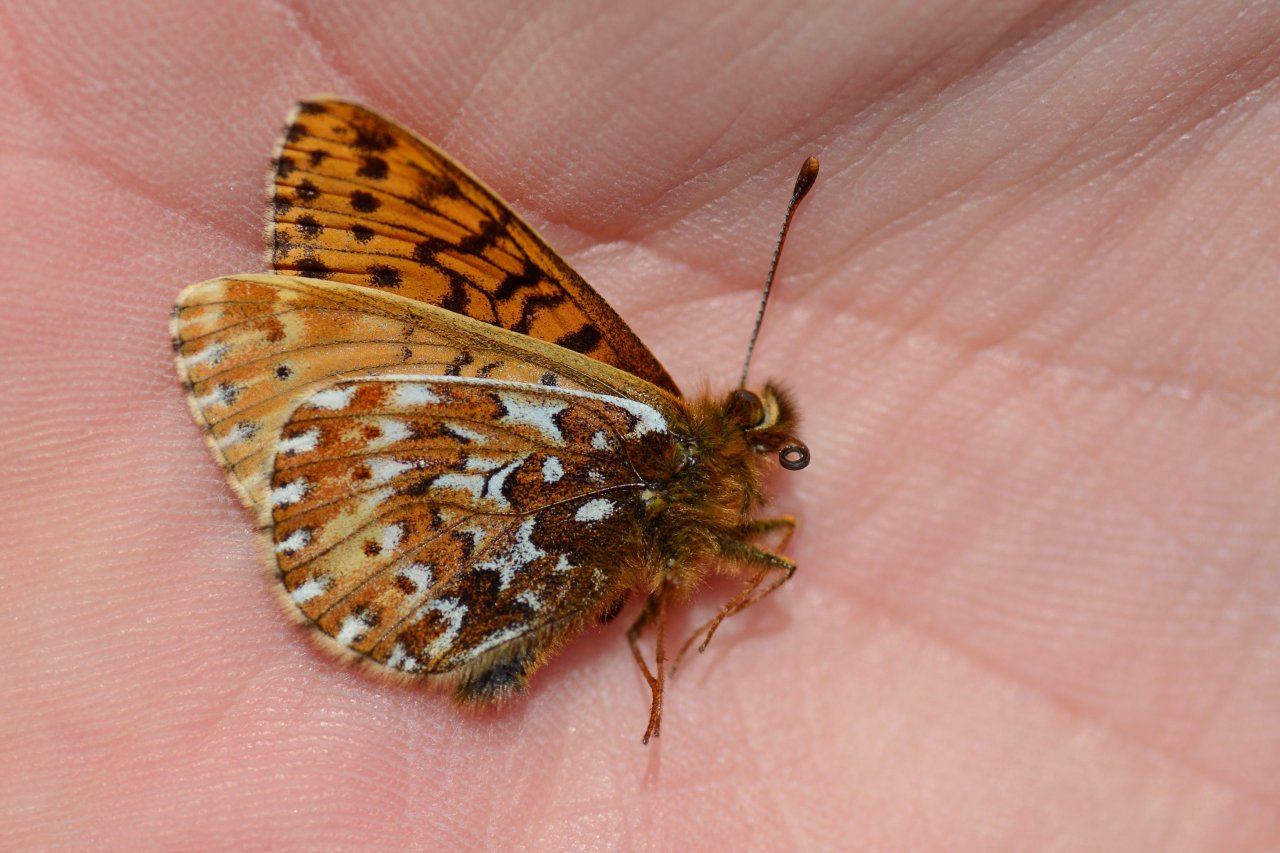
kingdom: Animalia
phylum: Arthropoda
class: Insecta
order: Lepidoptera
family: Nymphalidae
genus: Clossiana
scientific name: Clossiana polaris
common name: Polaris Fritillary
